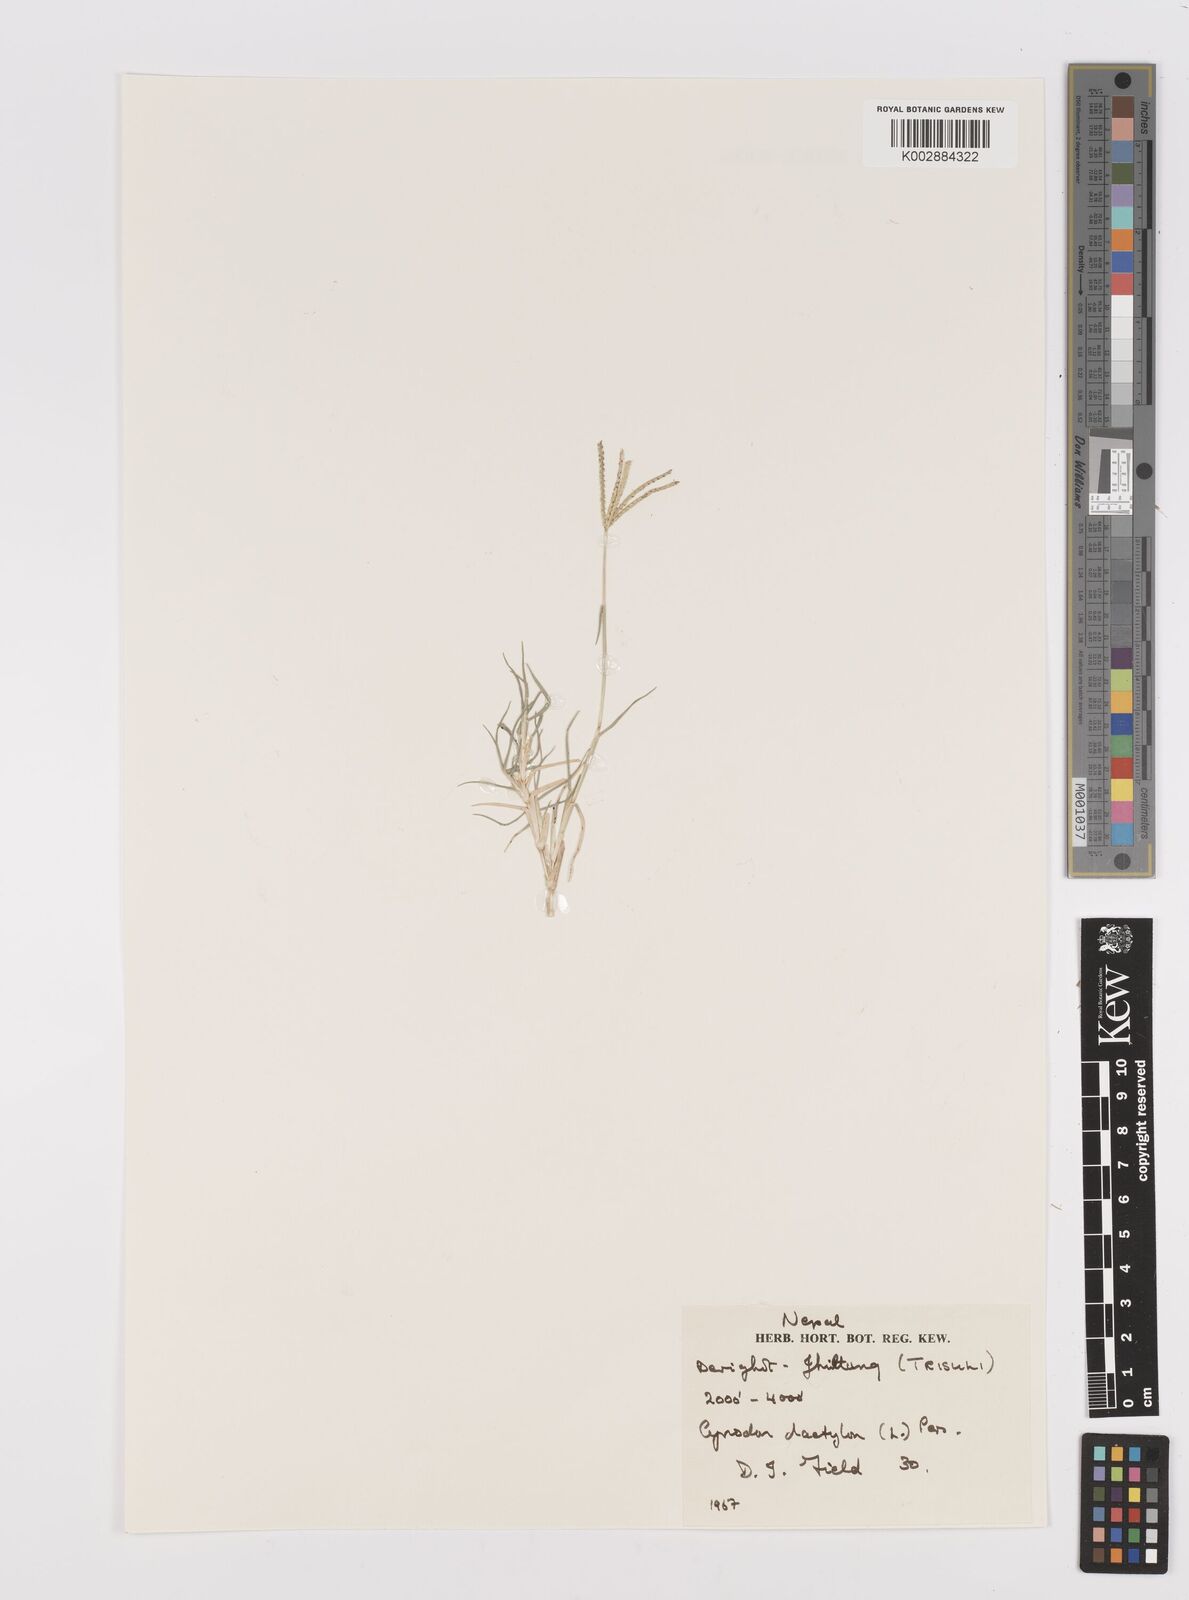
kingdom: Plantae
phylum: Tracheophyta
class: Liliopsida
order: Poales
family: Poaceae
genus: Cynodon
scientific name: Cynodon dactylon
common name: Bermuda grass
